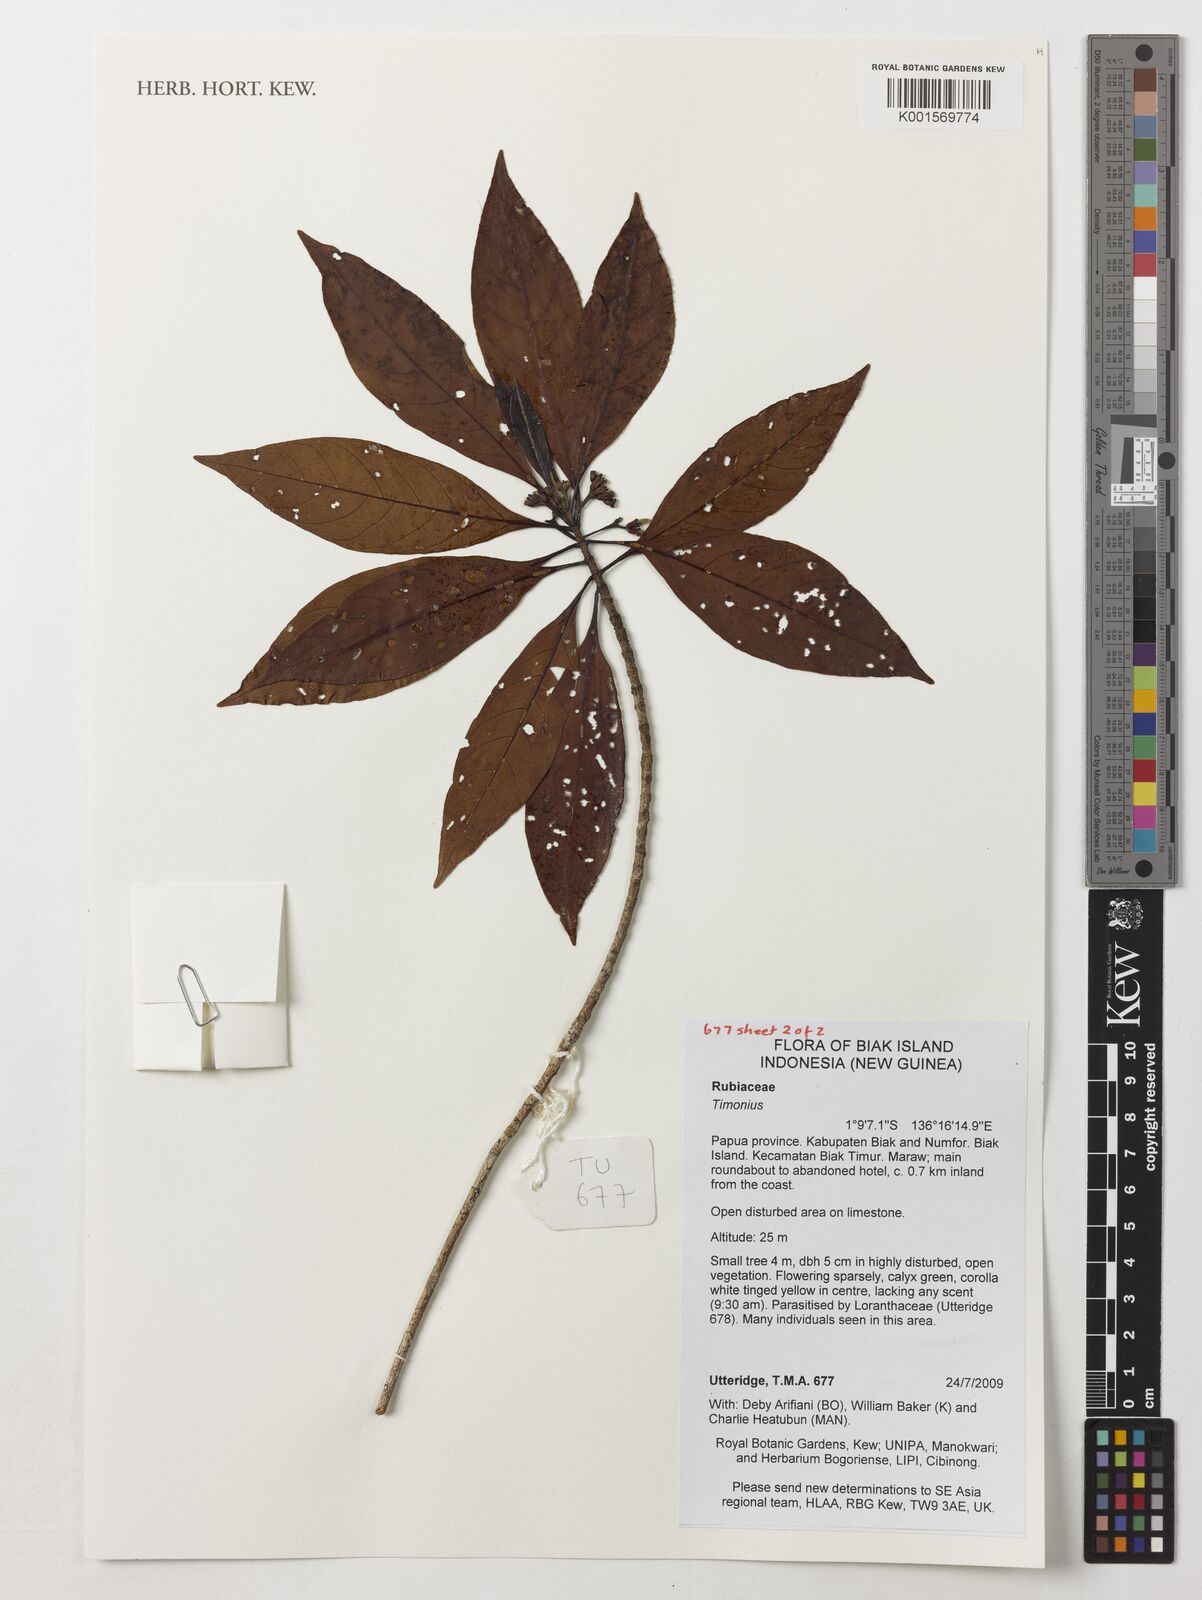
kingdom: Plantae
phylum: Tracheophyta
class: Magnoliopsida
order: Gentianales
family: Rubiaceae
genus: Timonius
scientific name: Timonius
